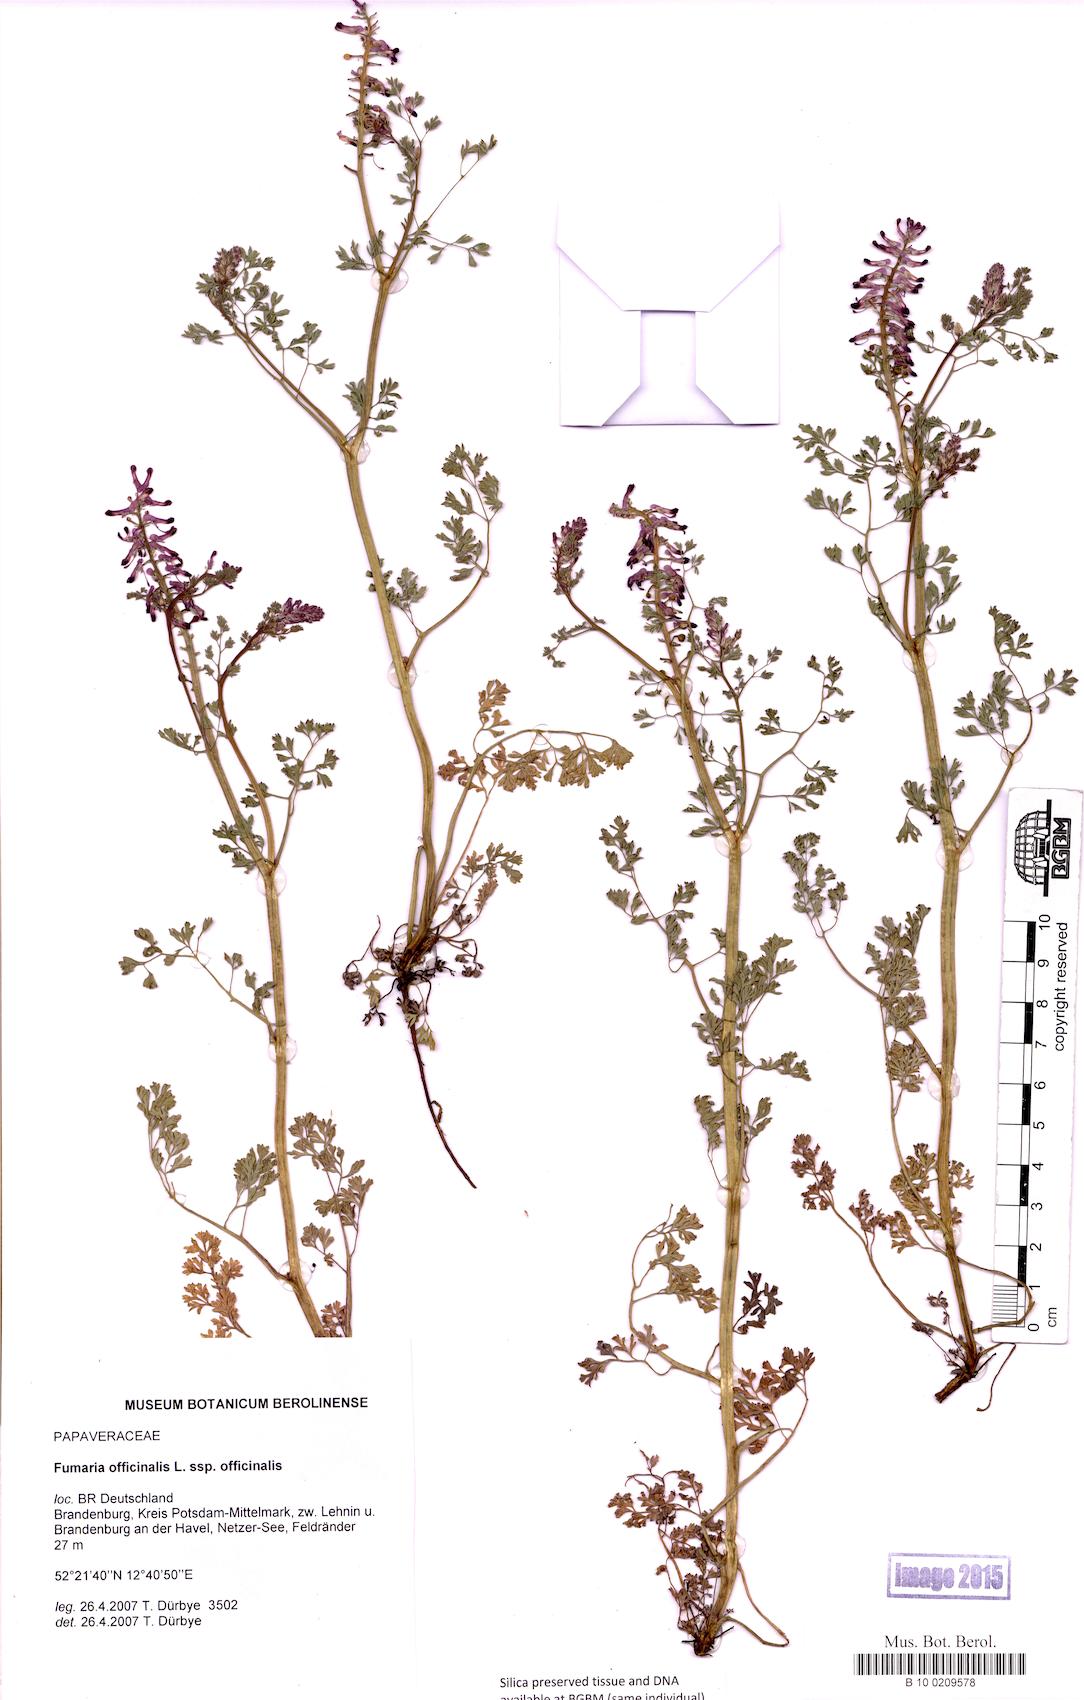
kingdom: Plantae
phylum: Tracheophyta
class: Magnoliopsida
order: Ranunculales
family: Papaveraceae
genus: Fumaria
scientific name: Fumaria officinalis
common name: Common fumitory
